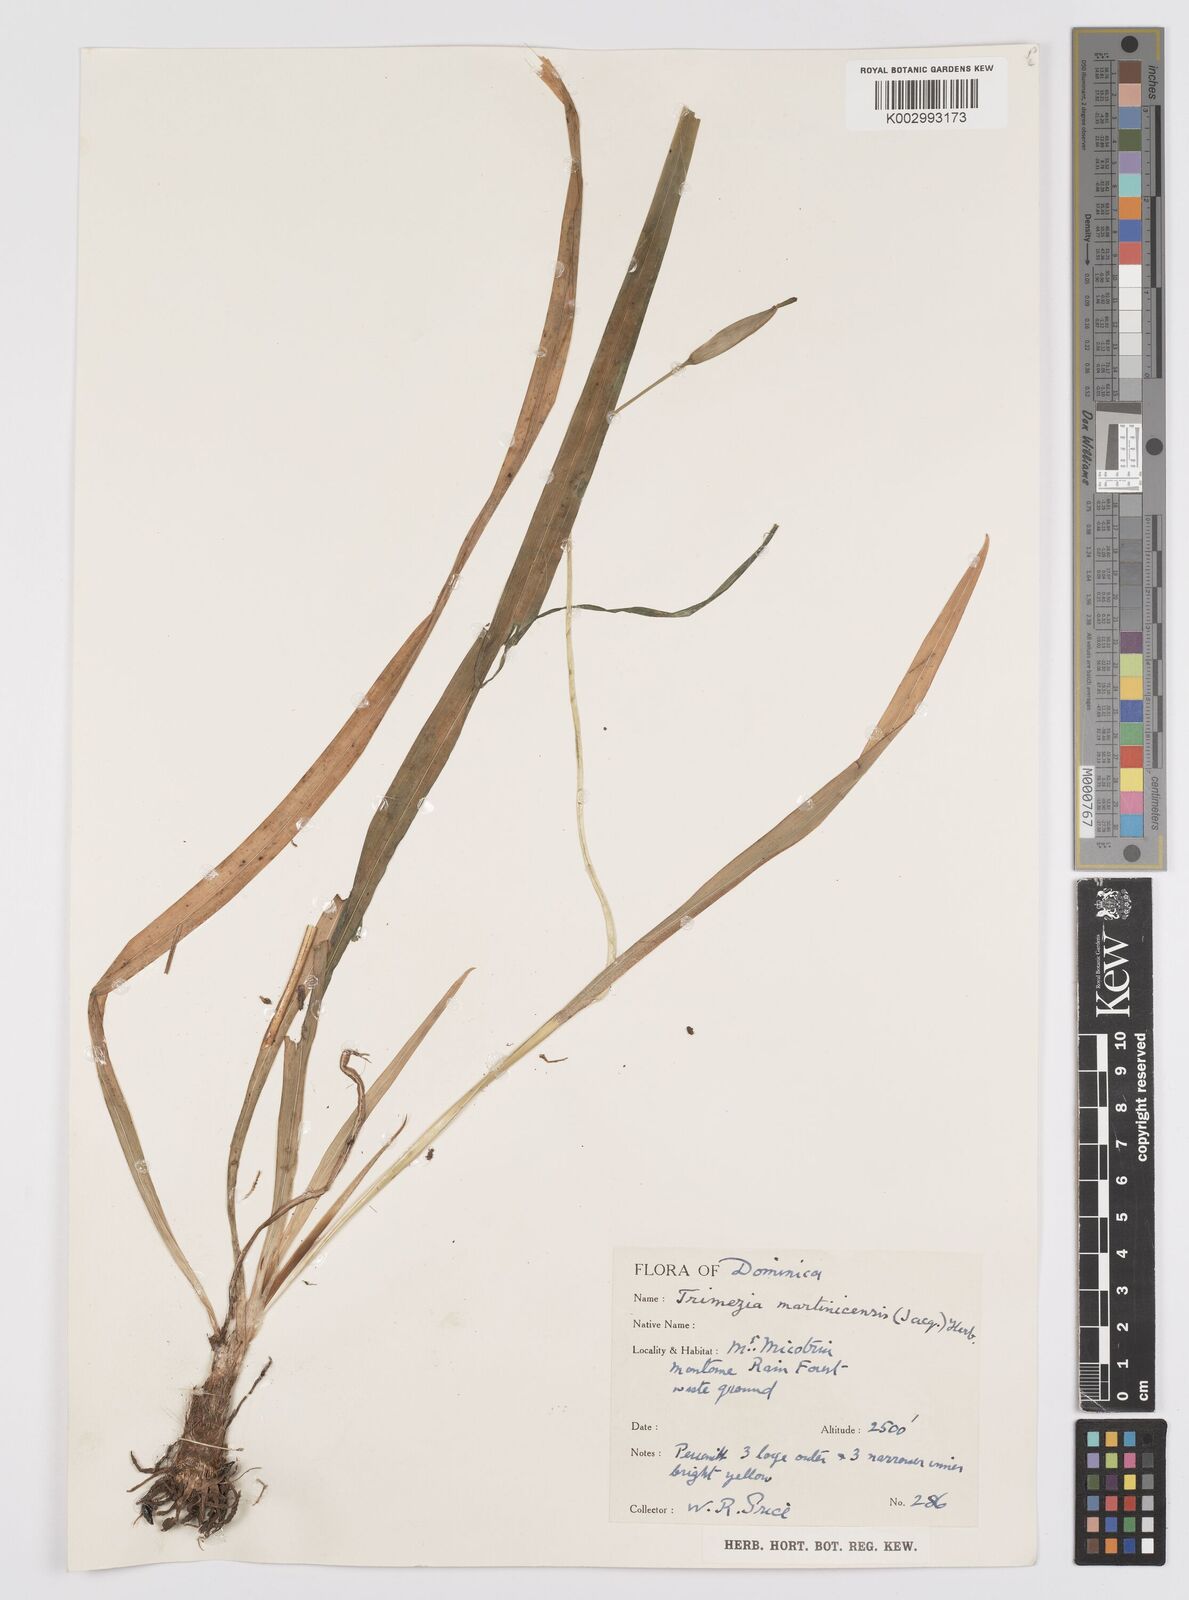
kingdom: Plantae
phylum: Tracheophyta
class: Liliopsida
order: Asparagales
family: Iridaceae
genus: Trimezia
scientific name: Trimezia martinicensis
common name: Martinique trimezia
